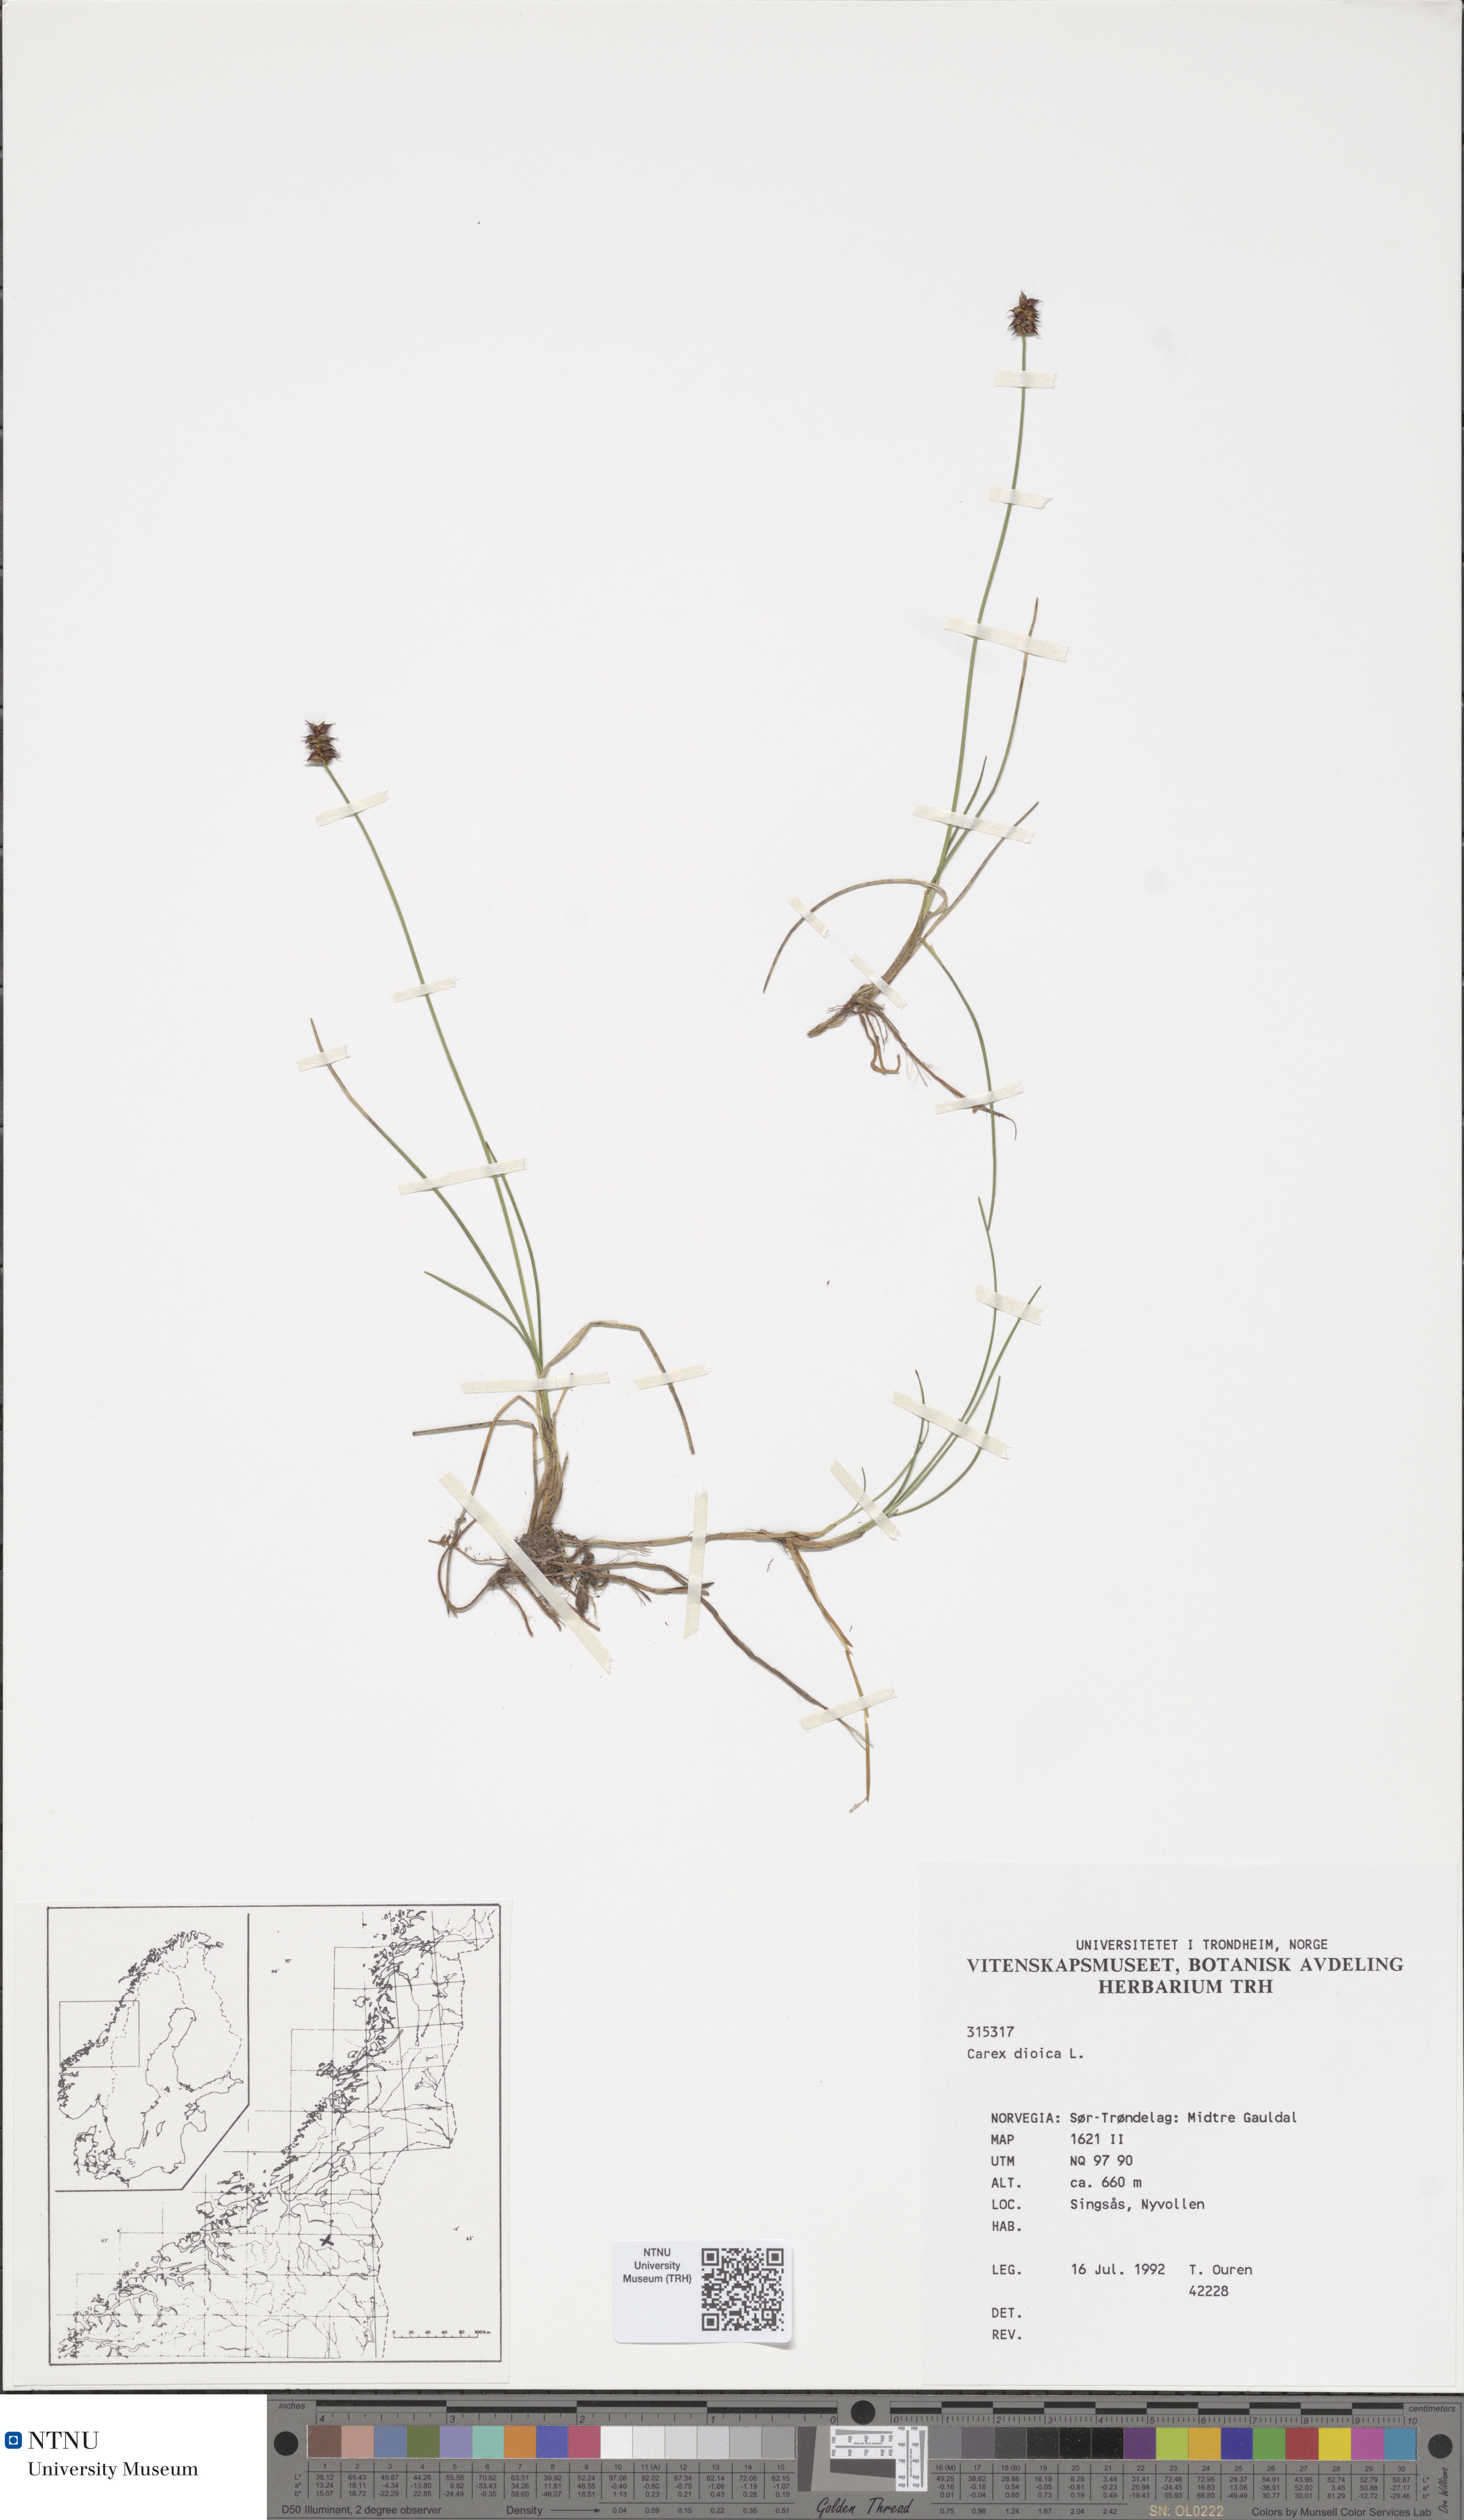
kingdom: Plantae
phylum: Tracheophyta
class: Liliopsida
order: Poales
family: Cyperaceae
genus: Carex
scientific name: Carex dioica
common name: Dioecious sedge
